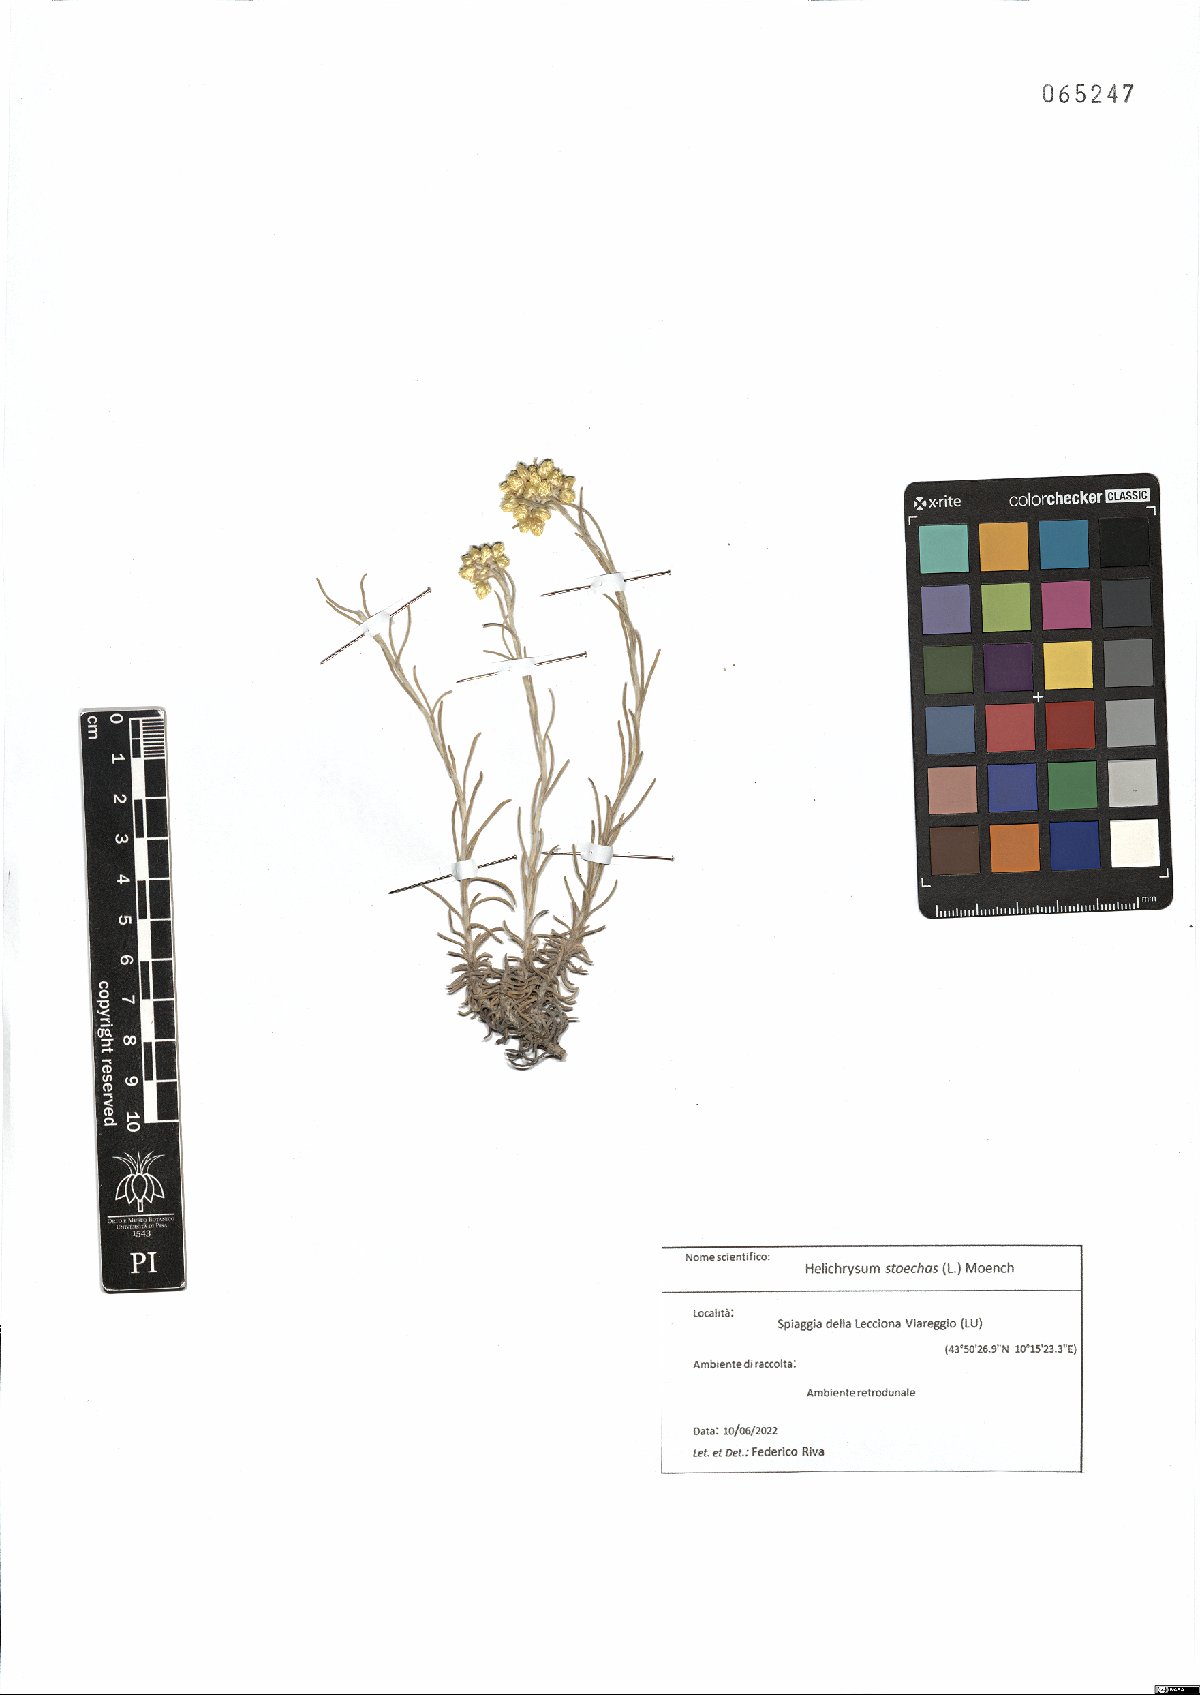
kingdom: Plantae
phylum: Tracheophyta
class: Magnoliopsida
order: Asterales
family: Asteraceae
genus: Helichrysum
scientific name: Helichrysum stoechas
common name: Goldilocks
